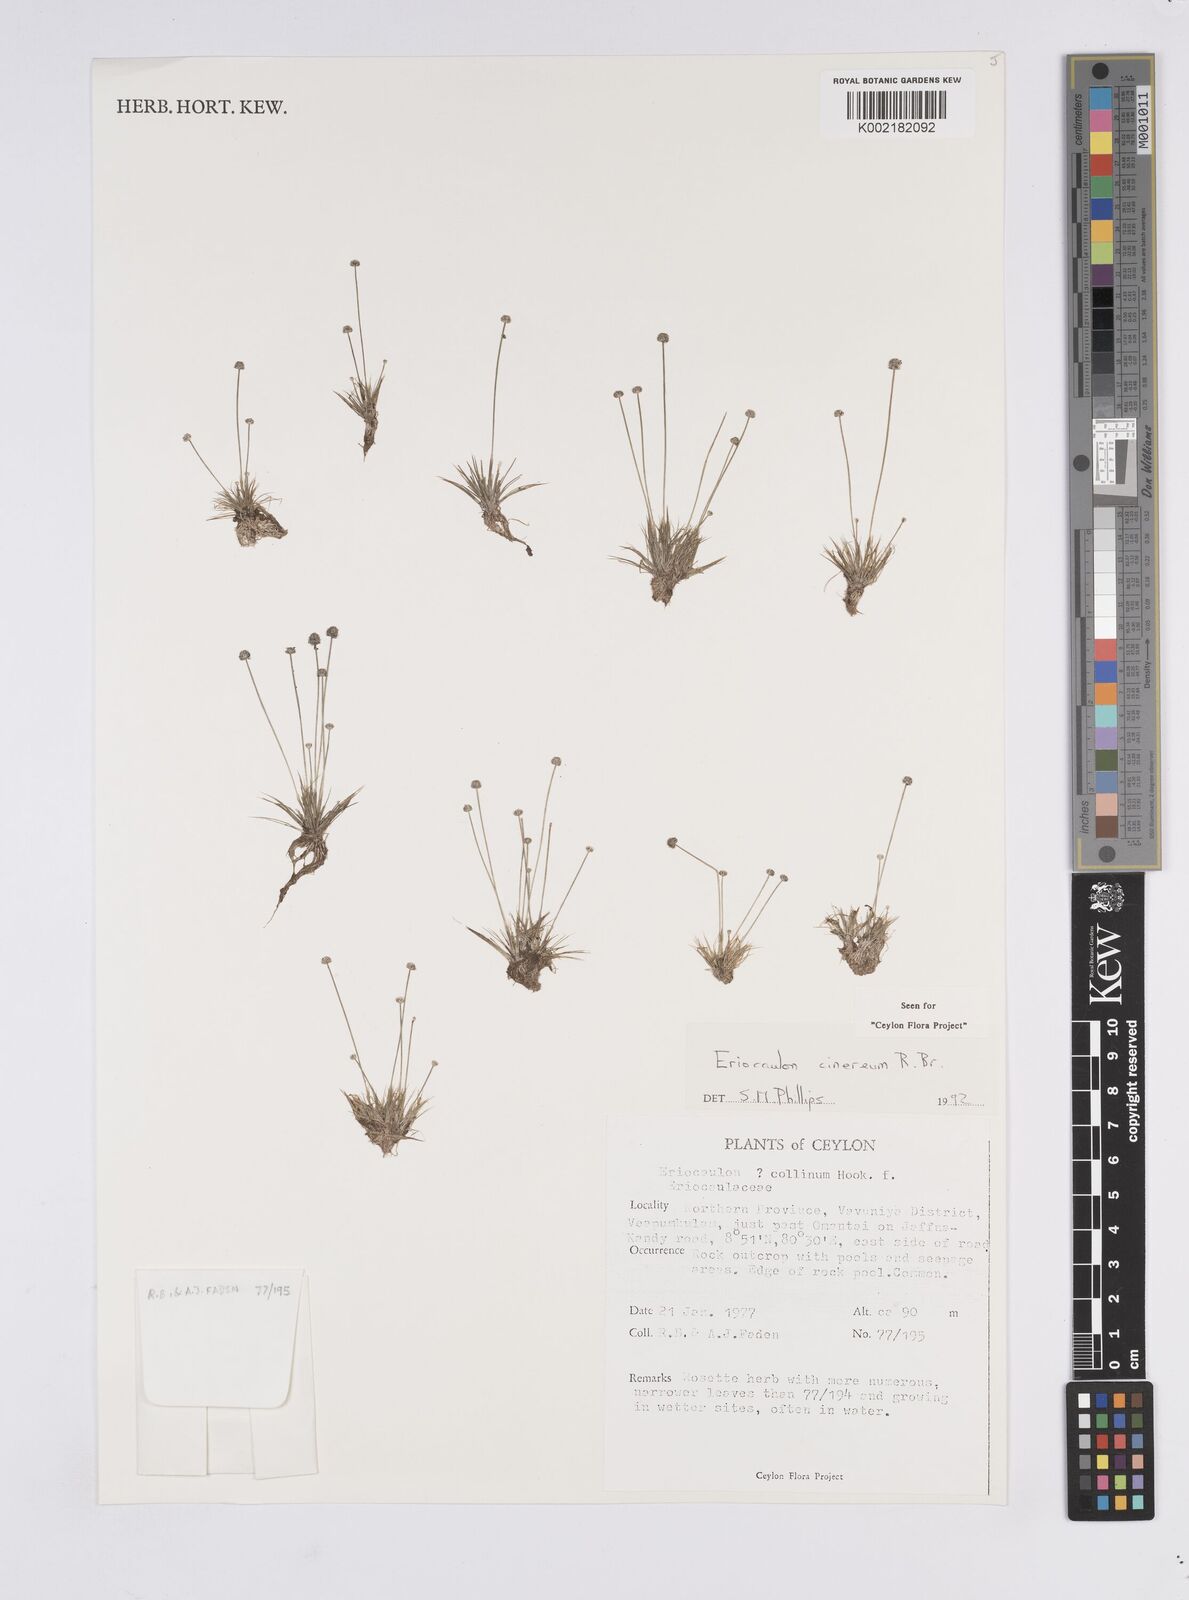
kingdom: Plantae
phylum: Tracheophyta
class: Liliopsida
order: Poales
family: Eriocaulaceae
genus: Eriocaulon
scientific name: Eriocaulon cinereum
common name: Ashy pipewort
